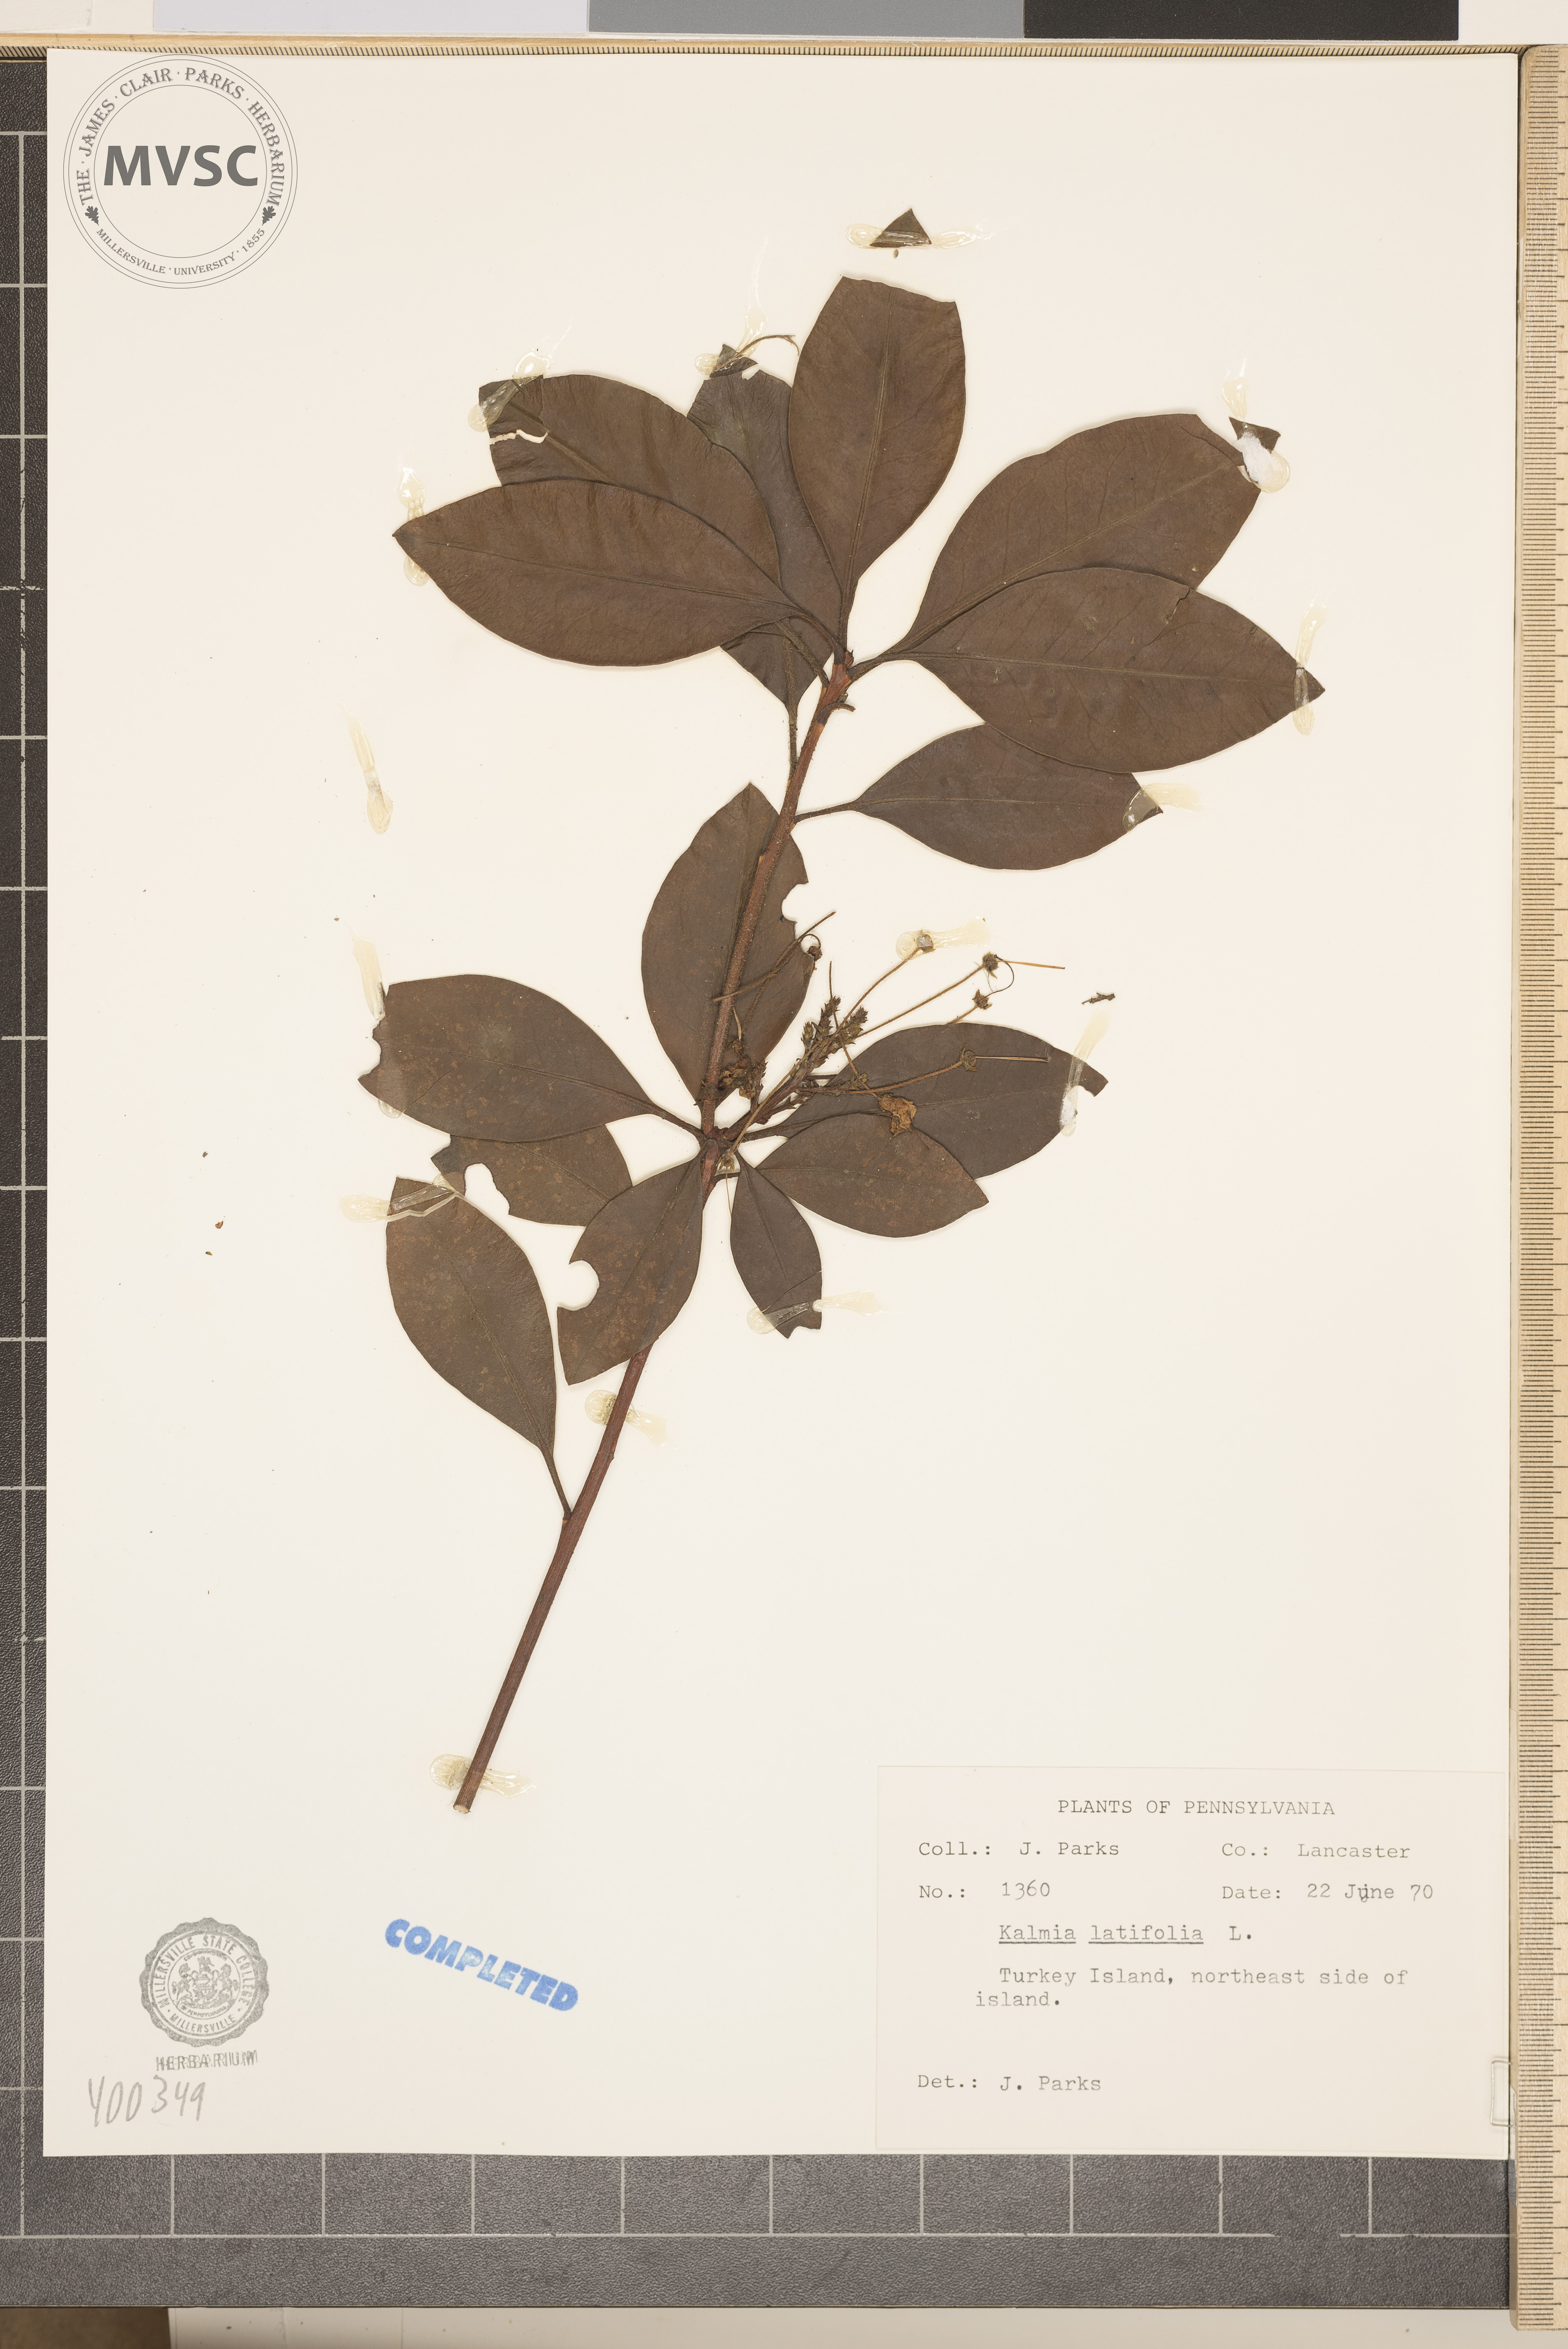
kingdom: Plantae
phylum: Tracheophyta
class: Magnoliopsida
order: Ericales
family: Ericaceae
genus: Kalmia
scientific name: Kalmia latifolia
